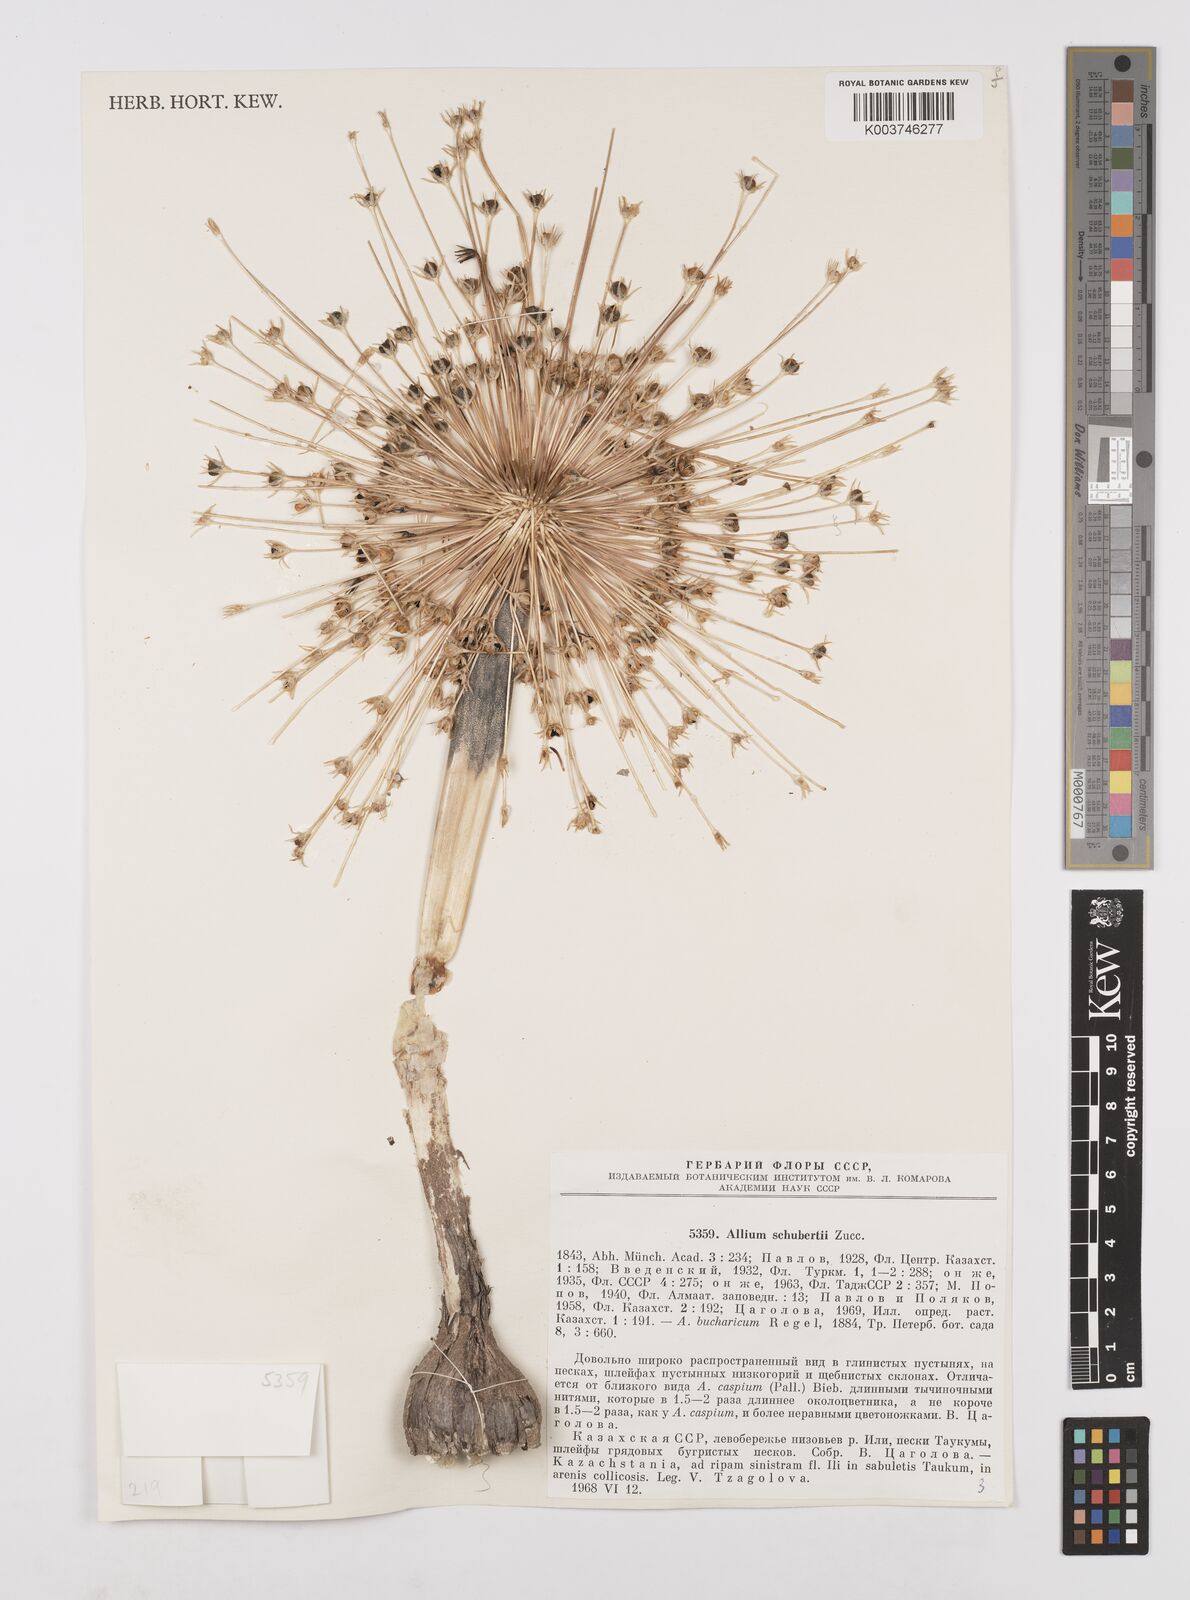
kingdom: Plantae
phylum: Tracheophyta
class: Liliopsida
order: Asparagales
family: Amaryllidaceae
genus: Allium
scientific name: Allium schubertii
